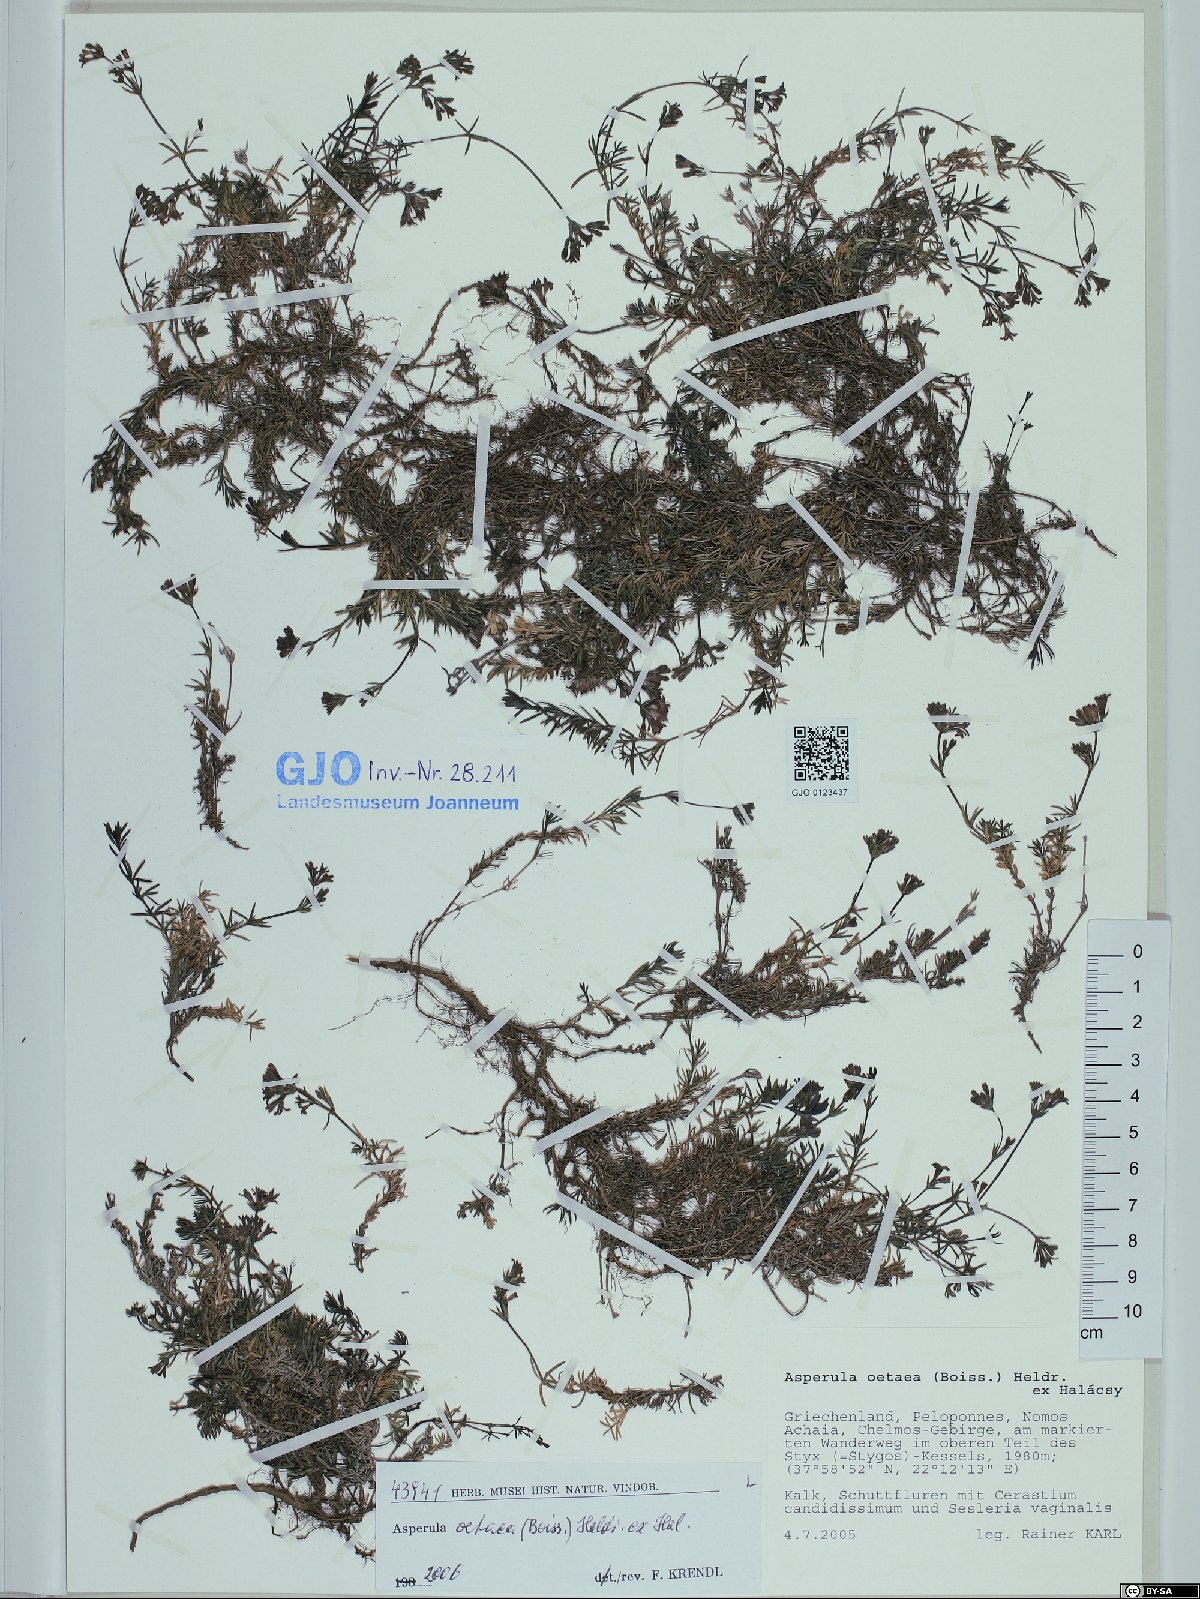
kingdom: Plantae
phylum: Tracheophyta
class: Magnoliopsida
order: Gentianales
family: Rubiaceae
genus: Cynanchica
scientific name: Cynanchica oetaea
